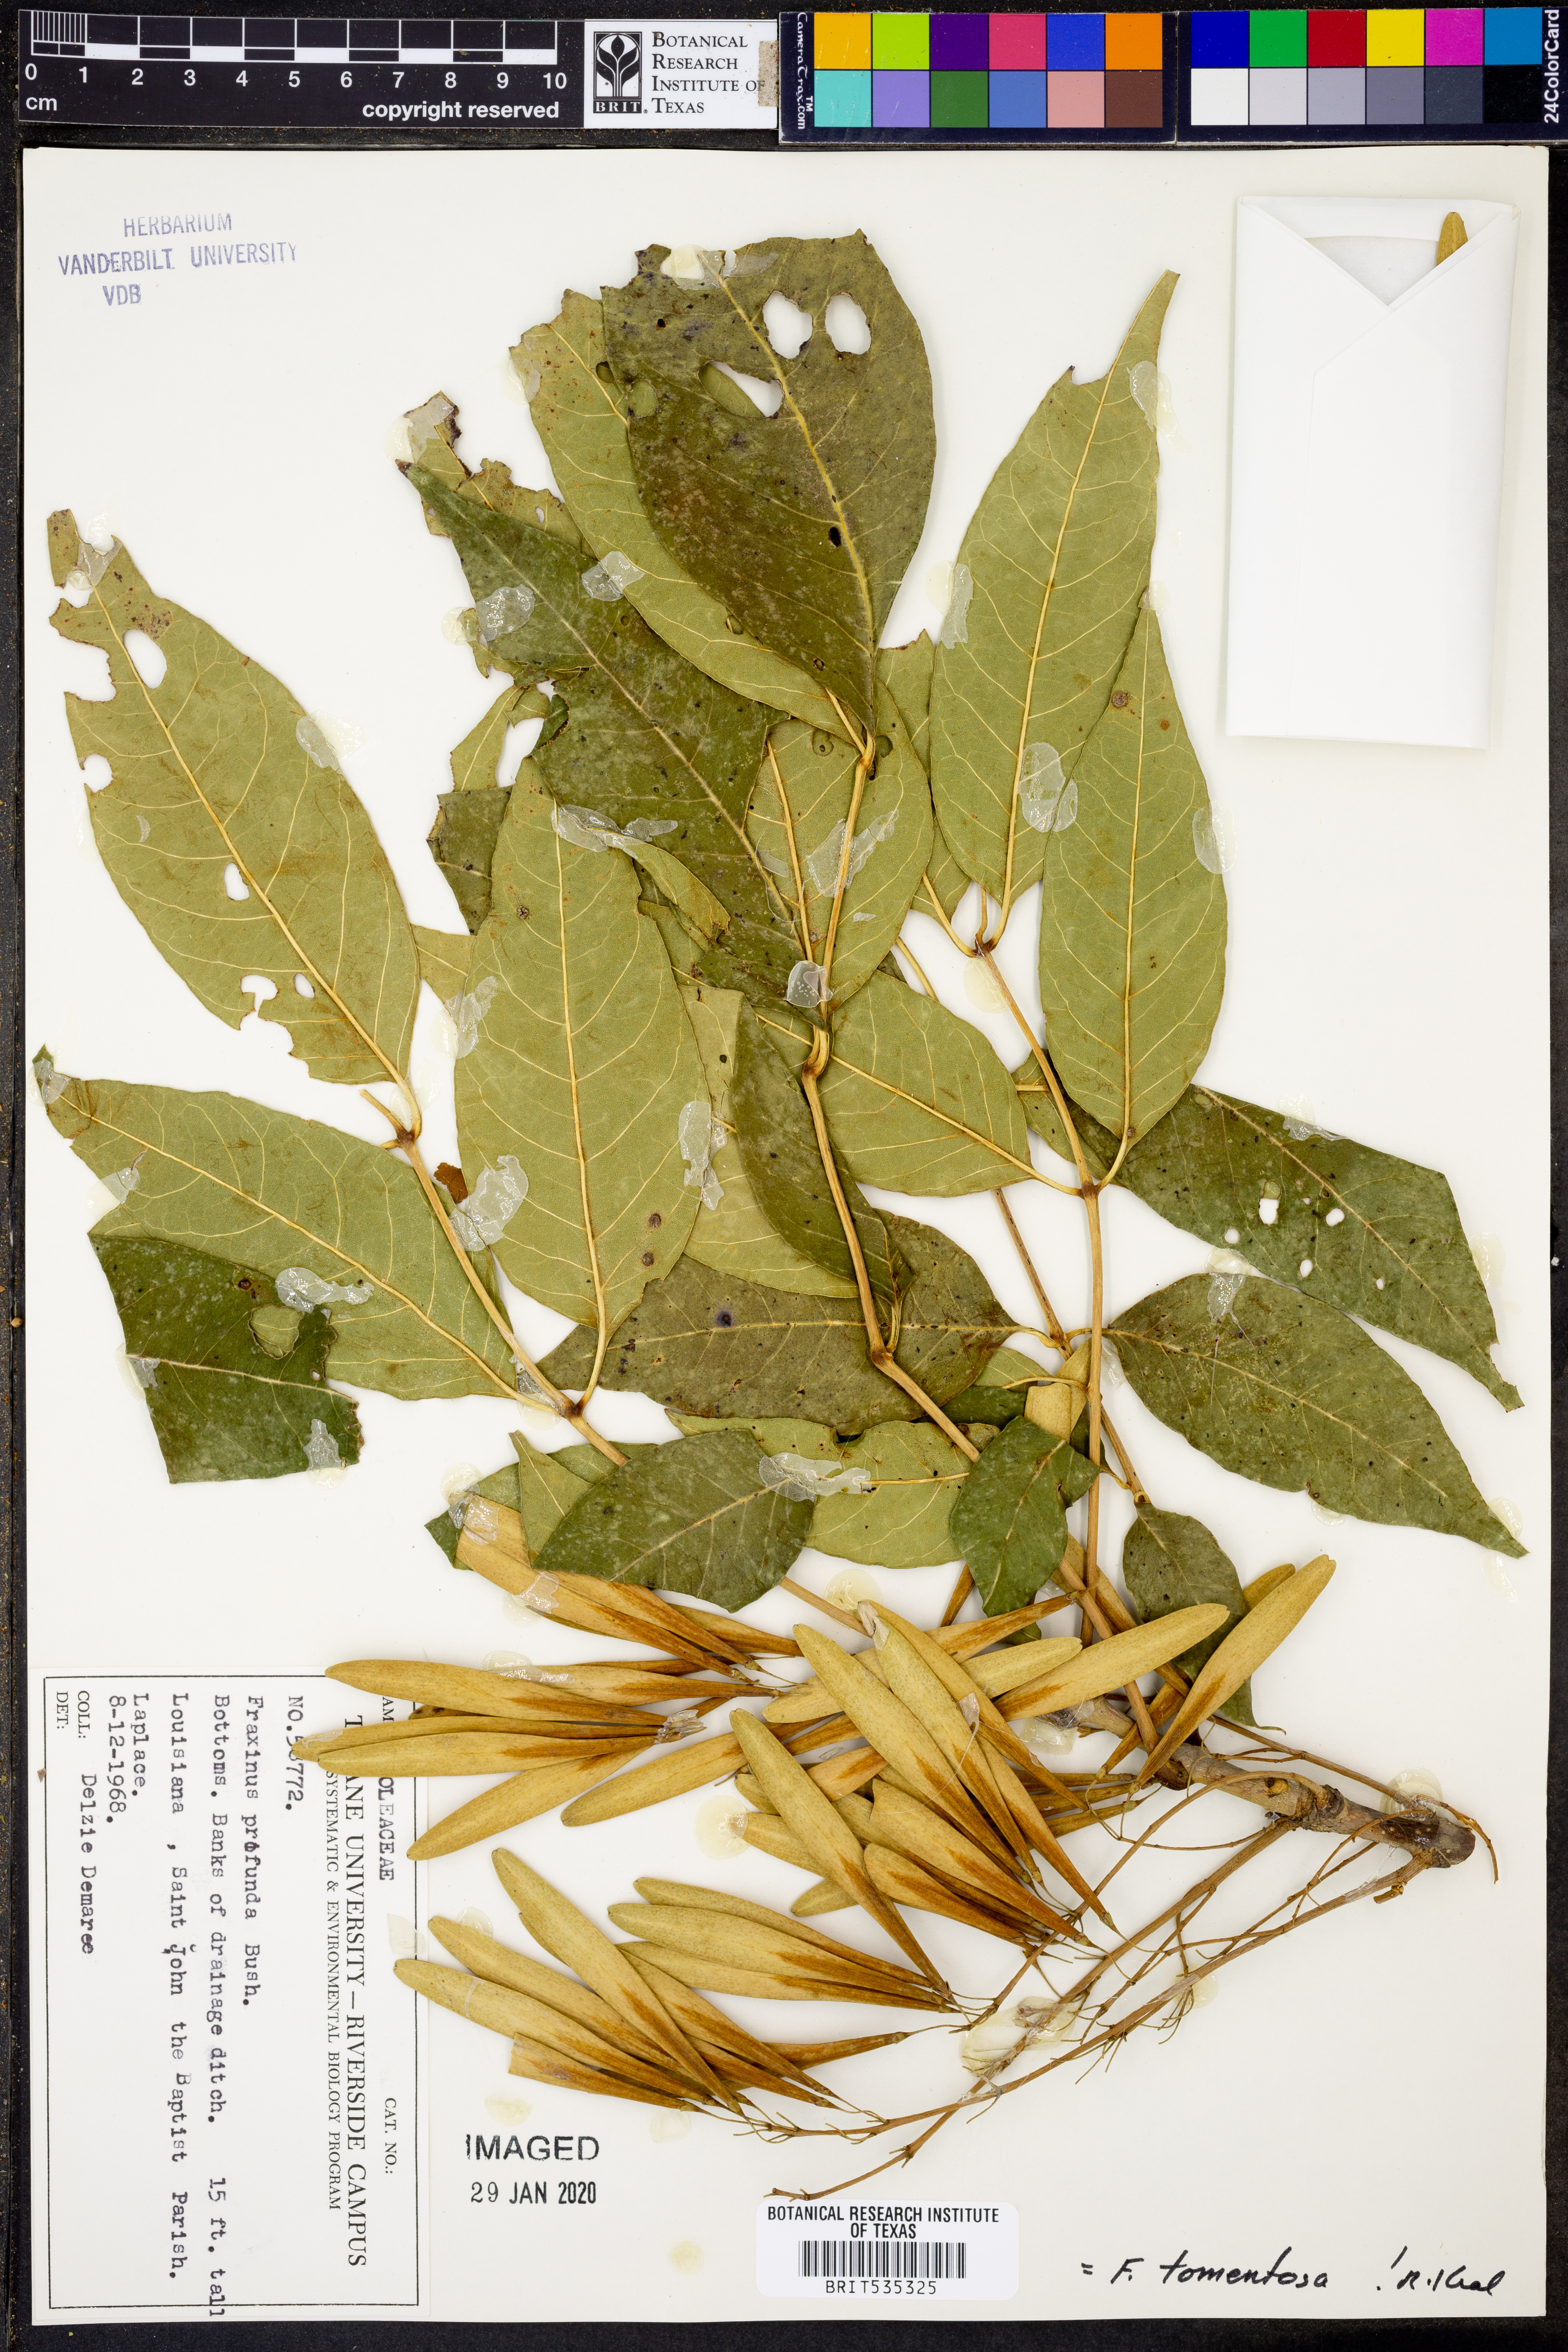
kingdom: Plantae
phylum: Tracheophyta
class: Magnoliopsida
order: Lamiales
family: Oleaceae
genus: Fraxinus
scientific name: Fraxinus profunda
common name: Pumpkin ash
